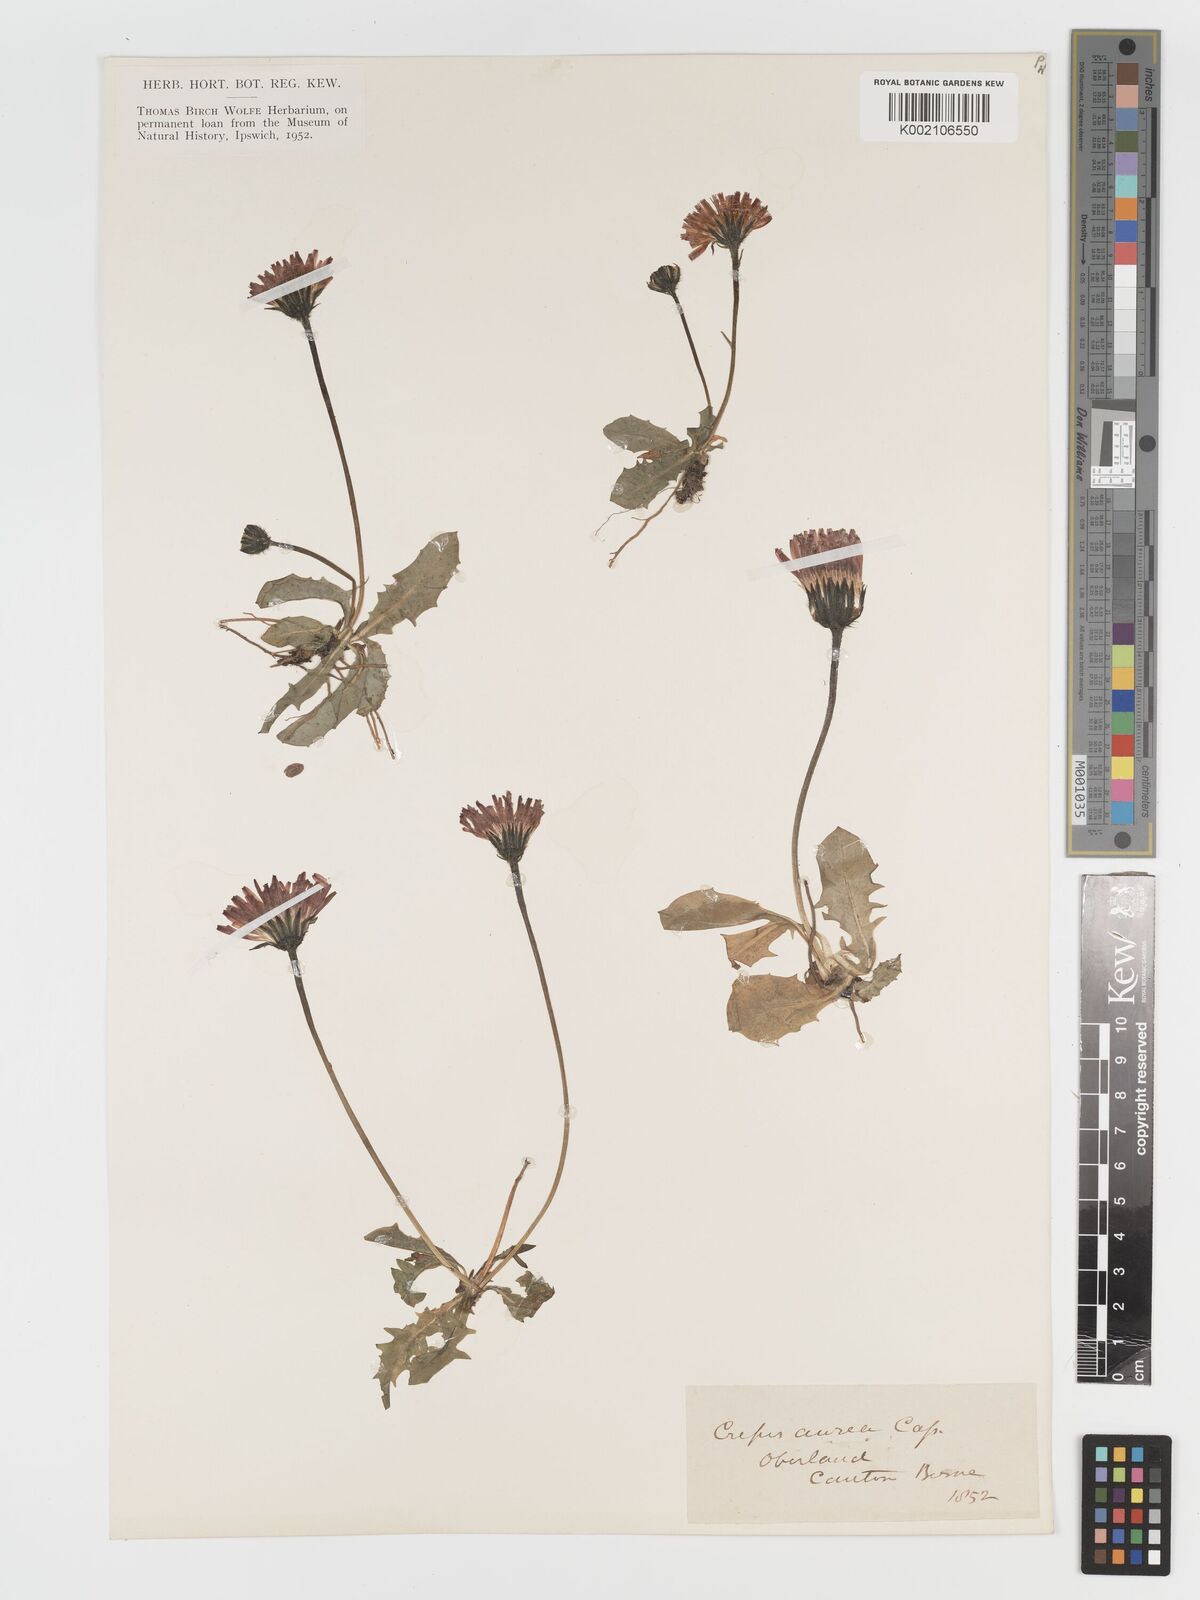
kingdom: Plantae
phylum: Tracheophyta
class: Magnoliopsida
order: Asterales
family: Asteraceae
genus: Crepis
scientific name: Crepis aurea
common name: Golden hawk's-beard
